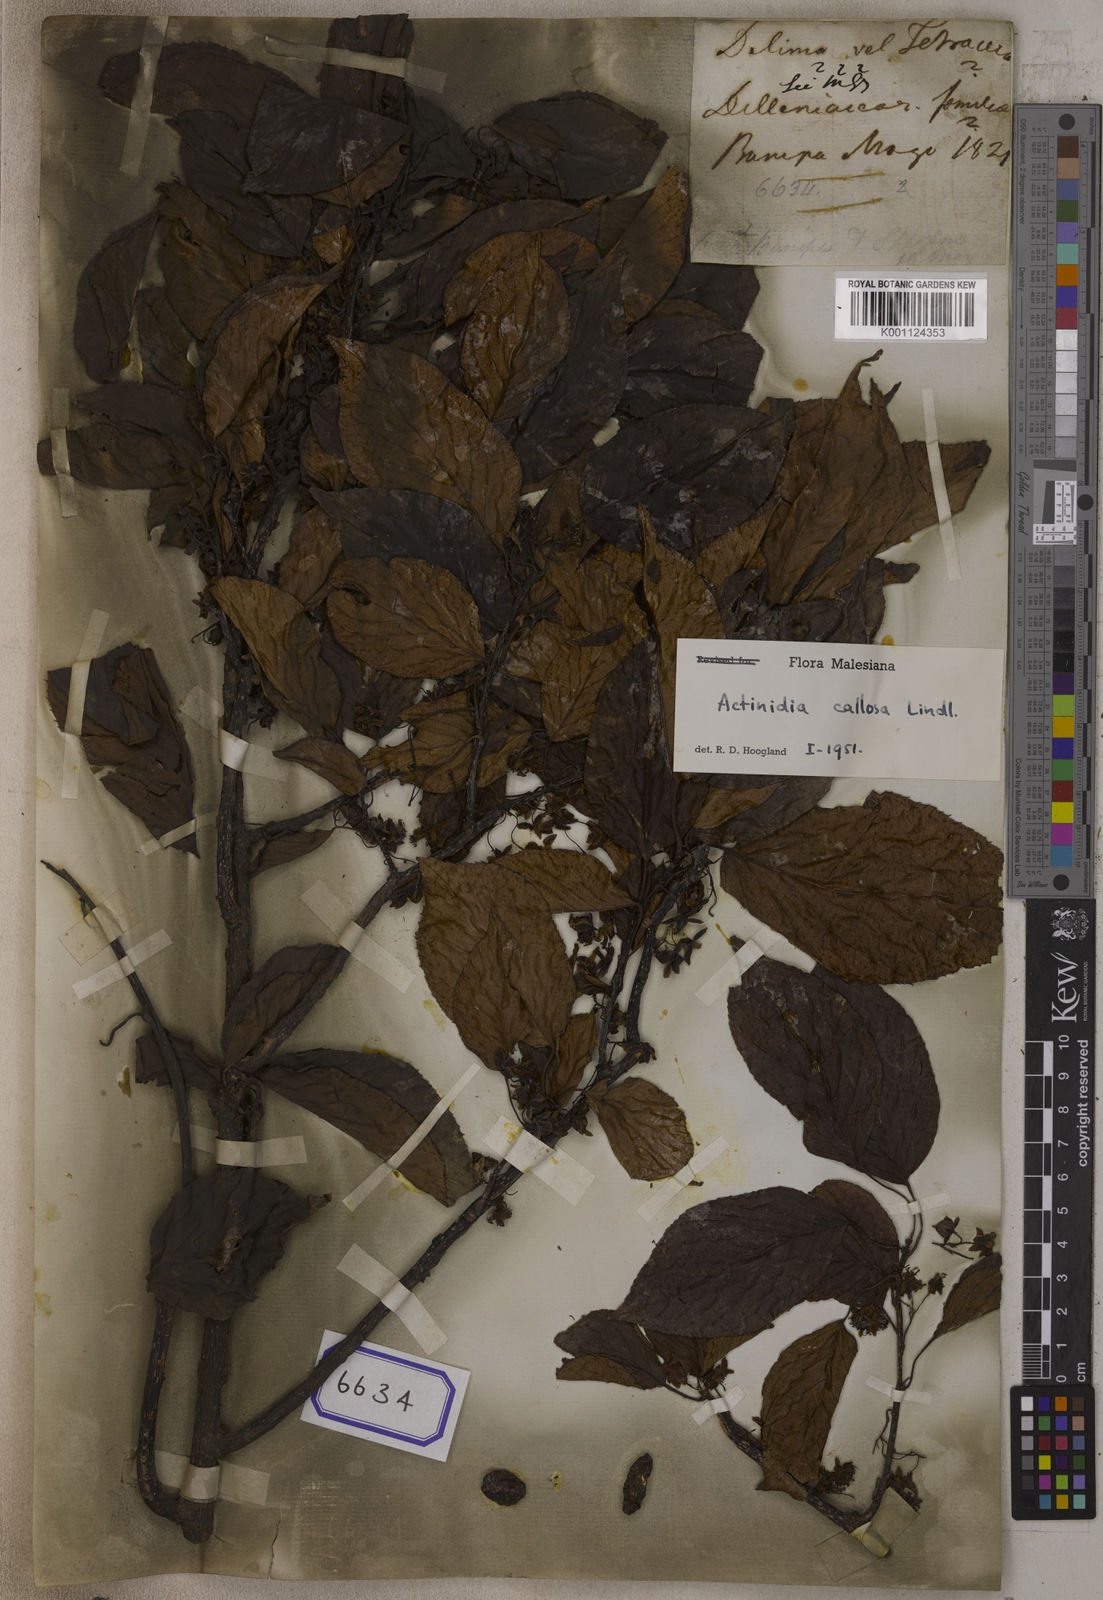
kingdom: Plantae
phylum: Tracheophyta
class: Magnoliopsida
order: Dilleniales
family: Dilleniaceae
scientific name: Dilleniaceae
